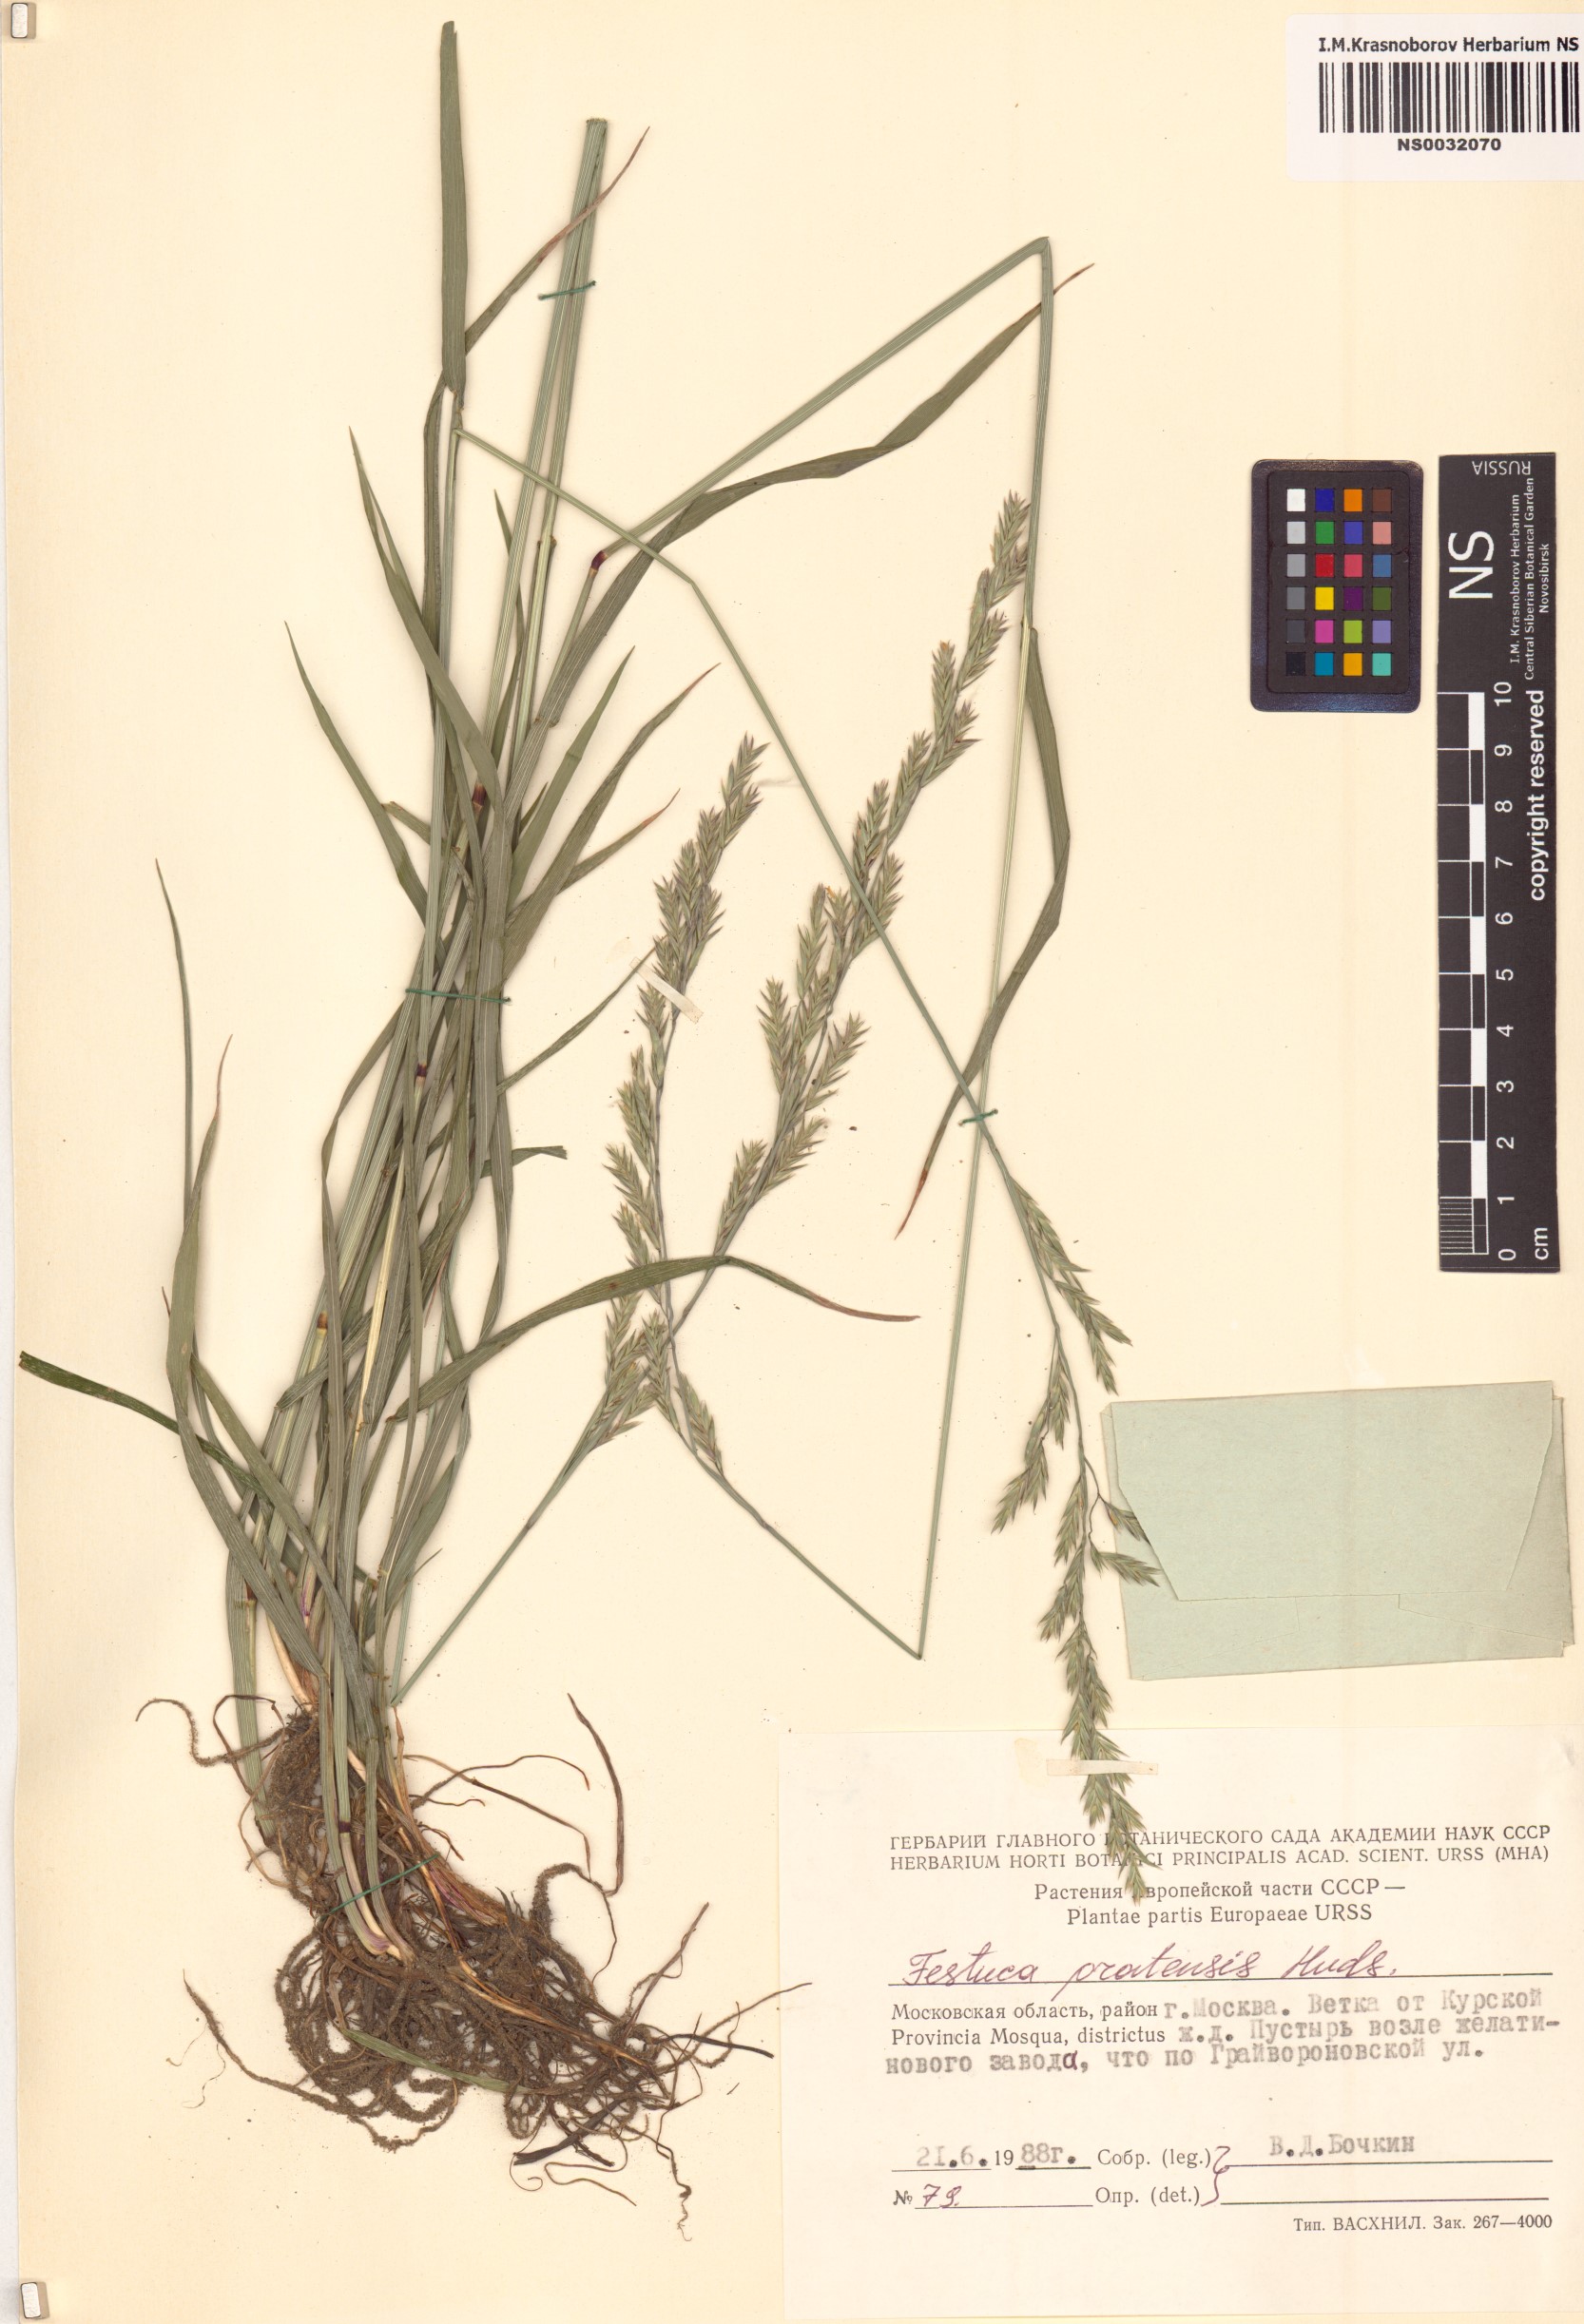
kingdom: Plantae
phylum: Tracheophyta
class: Liliopsida
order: Poales
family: Poaceae
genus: Lolium
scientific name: Lolium pratense
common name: Dover grass
